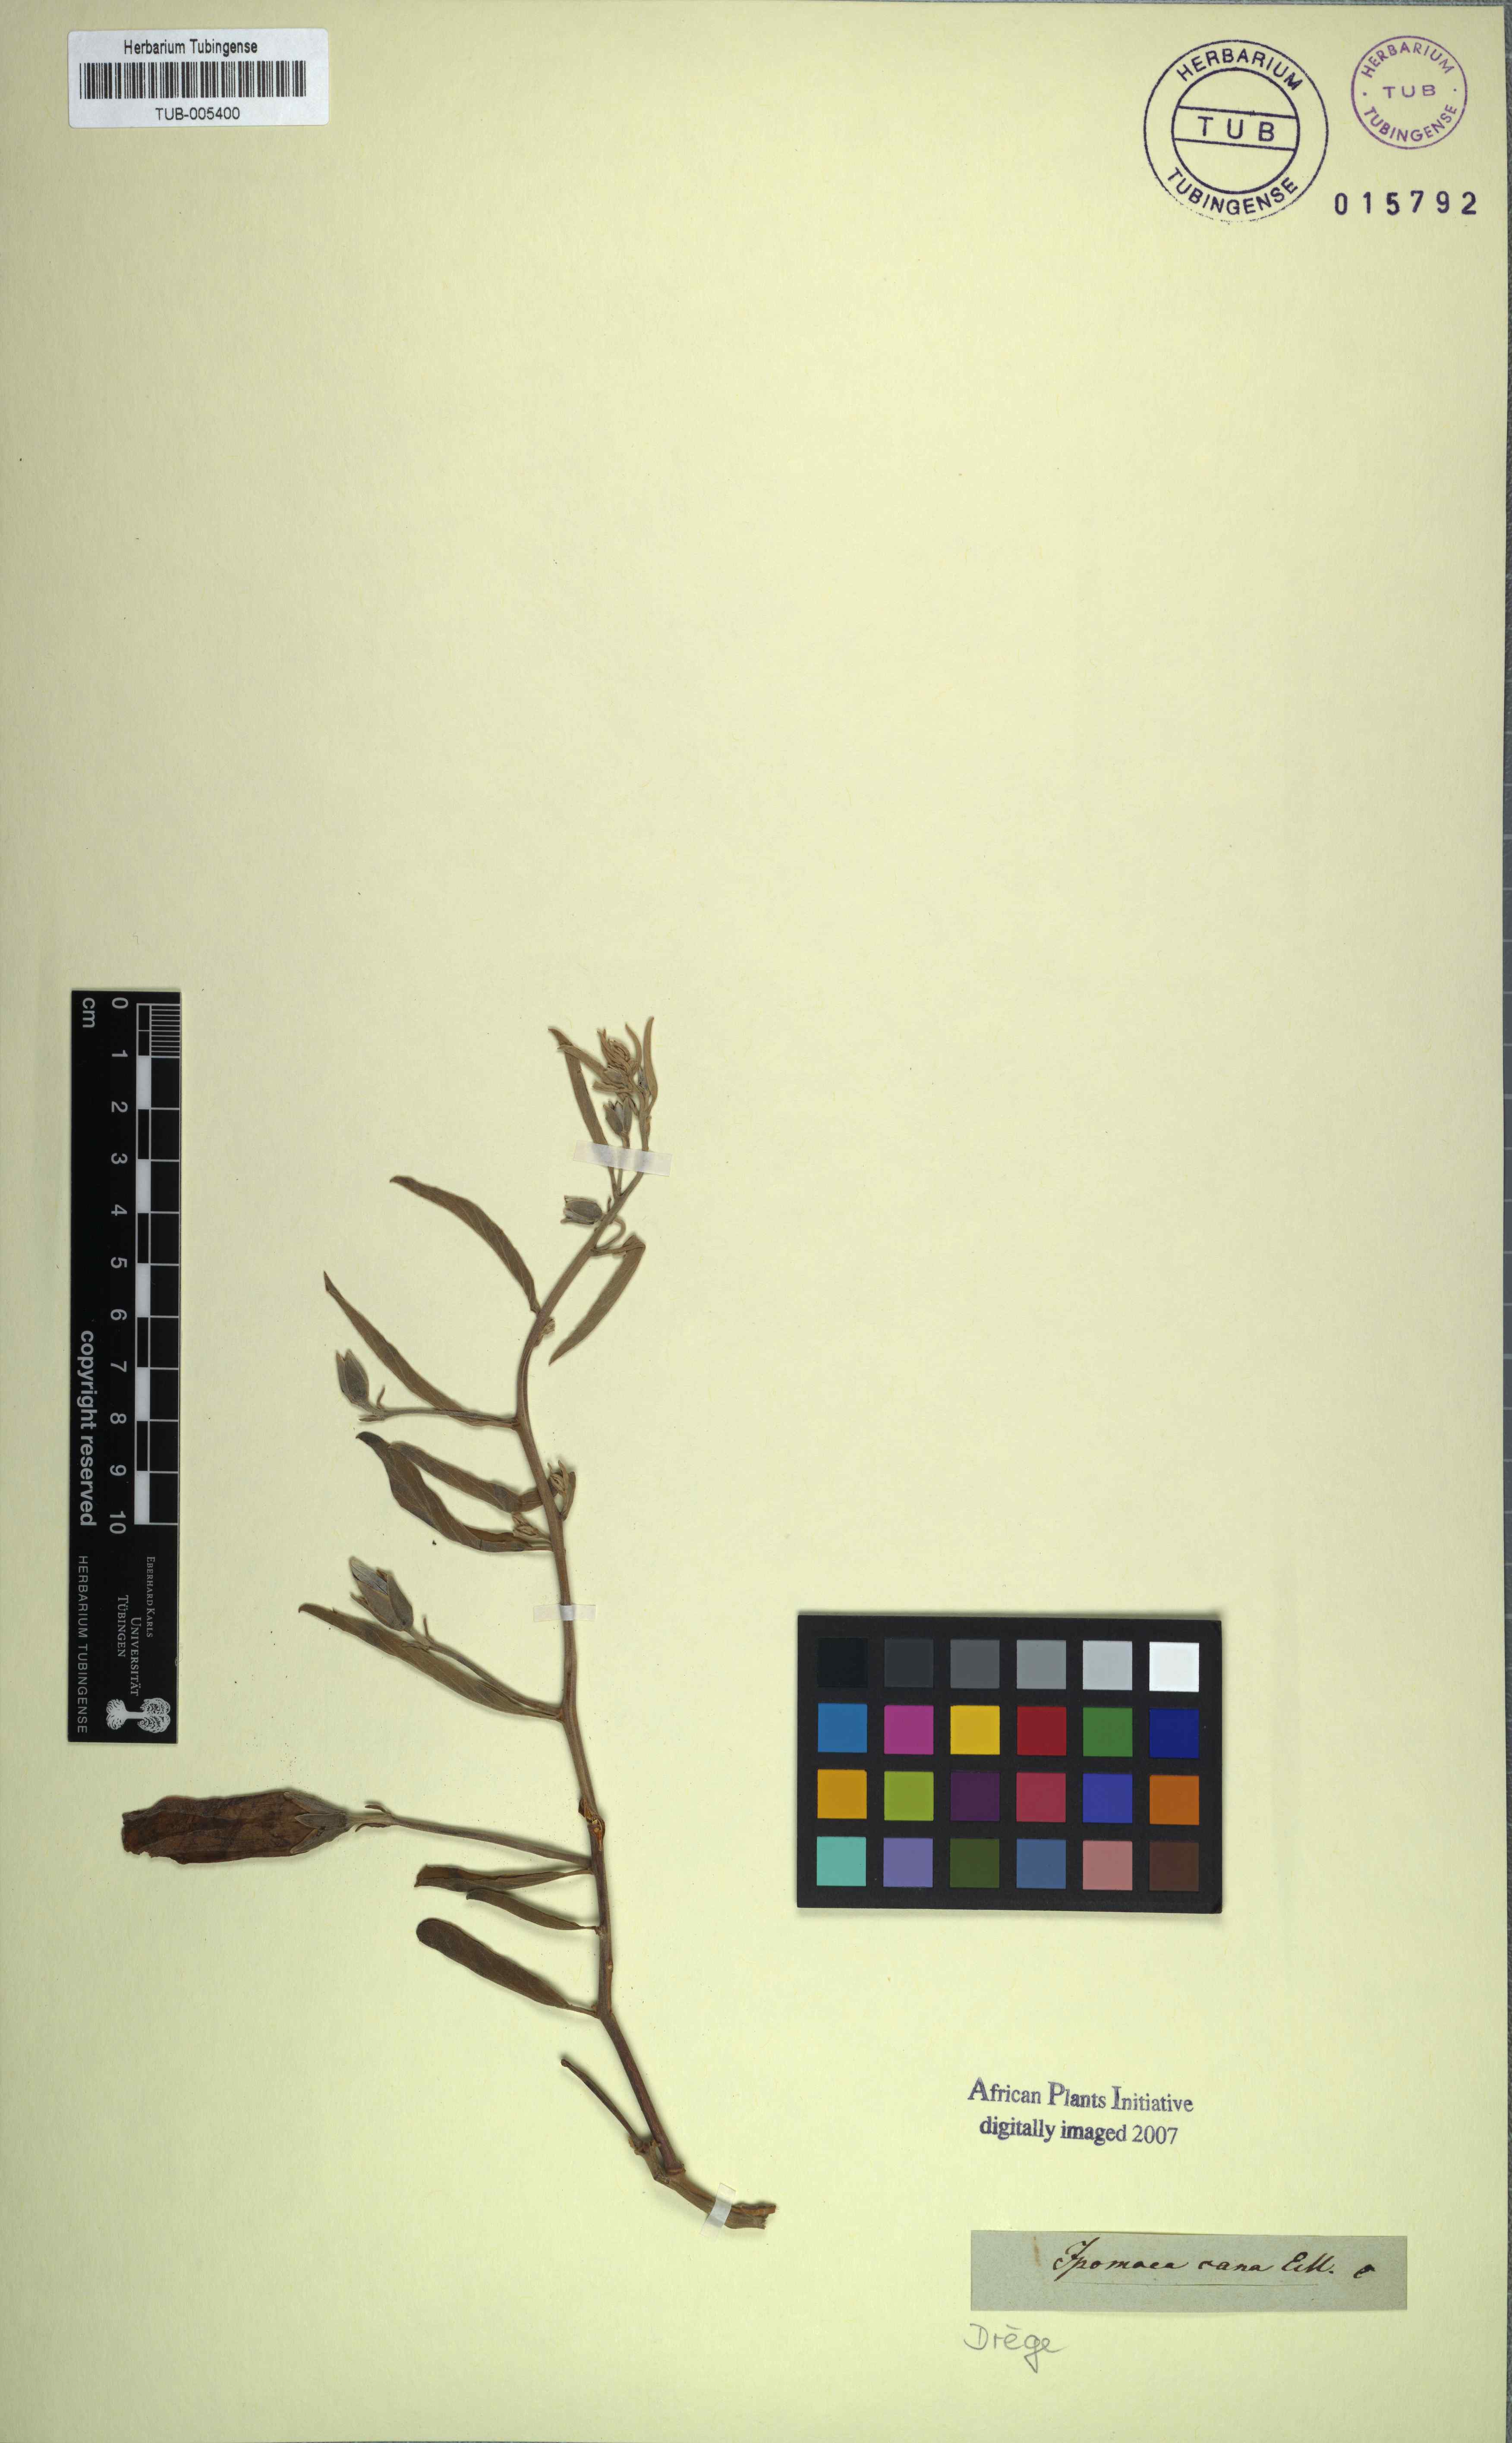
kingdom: Plantae
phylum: Tracheophyta
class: Magnoliopsida
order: Solanales
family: Convolvulaceae
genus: Ipomoea
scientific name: Ipomoea oenotheroides
